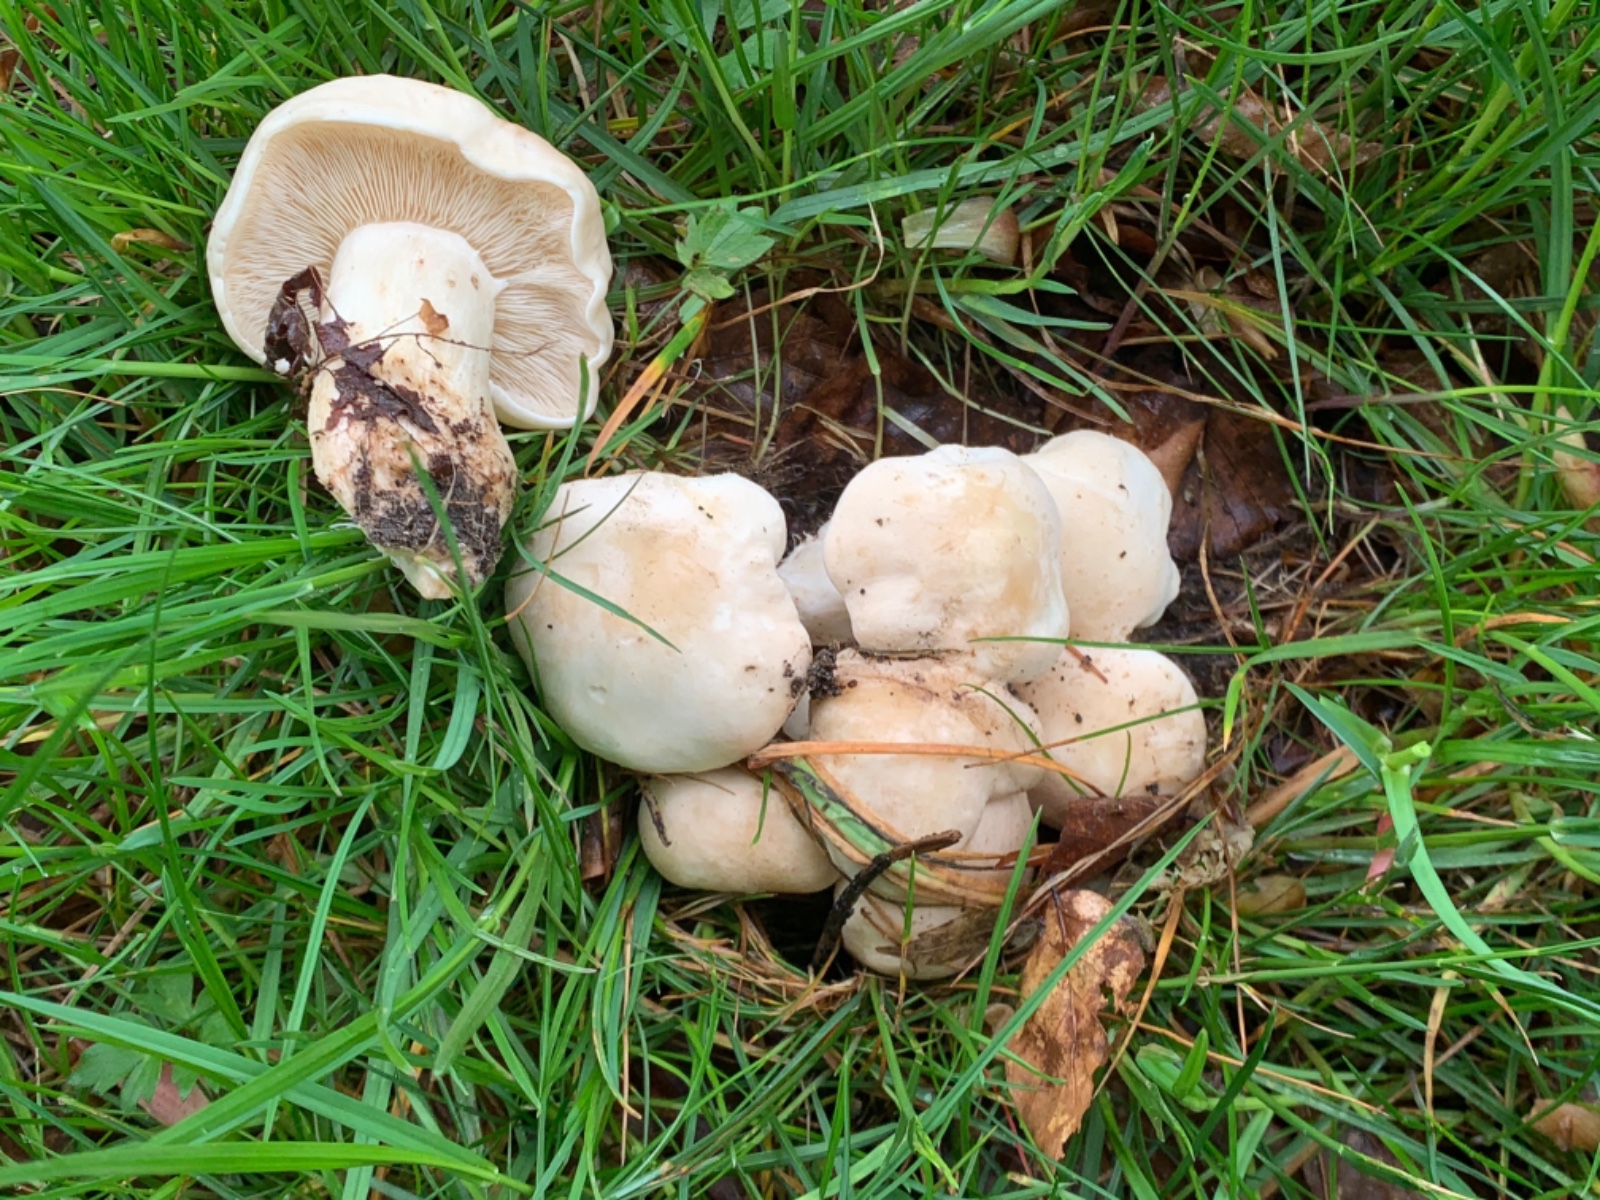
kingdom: Fungi
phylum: Basidiomycota
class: Agaricomycetes
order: Agaricales
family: Lyophyllaceae
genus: Calocybe
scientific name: Calocybe gambosa
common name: vårmusseron
